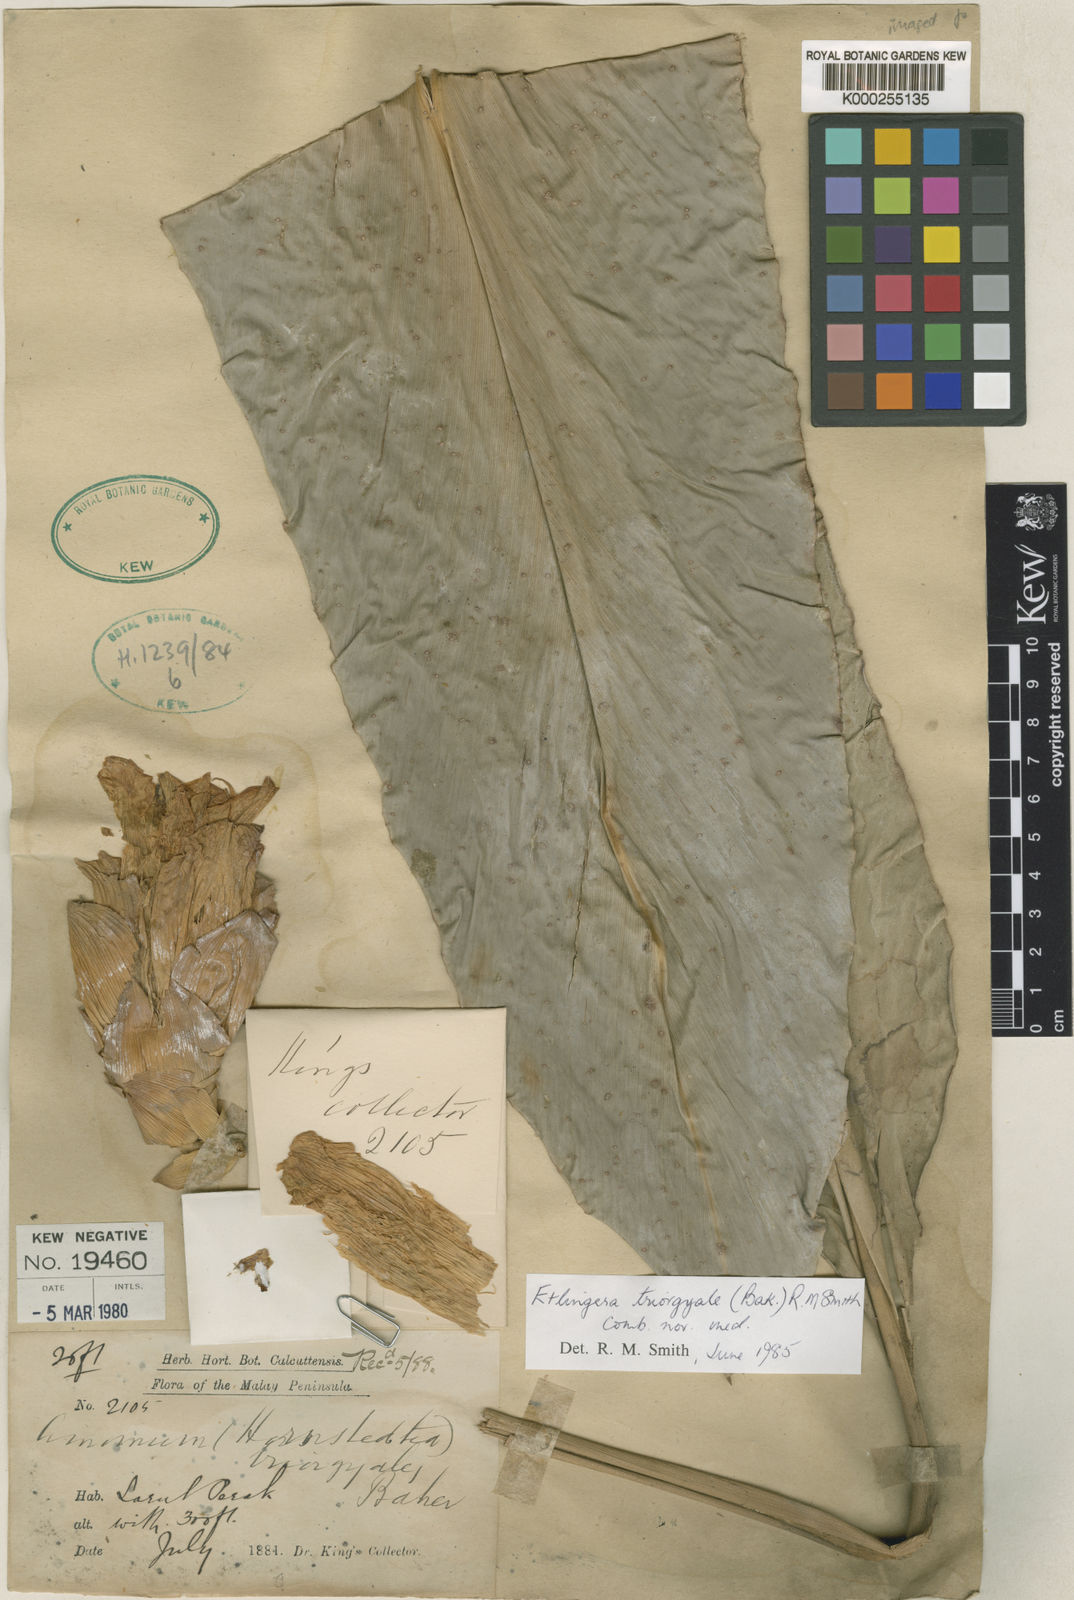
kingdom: Plantae
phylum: Tracheophyta
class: Liliopsida
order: Zingiberales
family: Zingiberaceae
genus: Etlingera
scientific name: Etlingera triorgyalis
